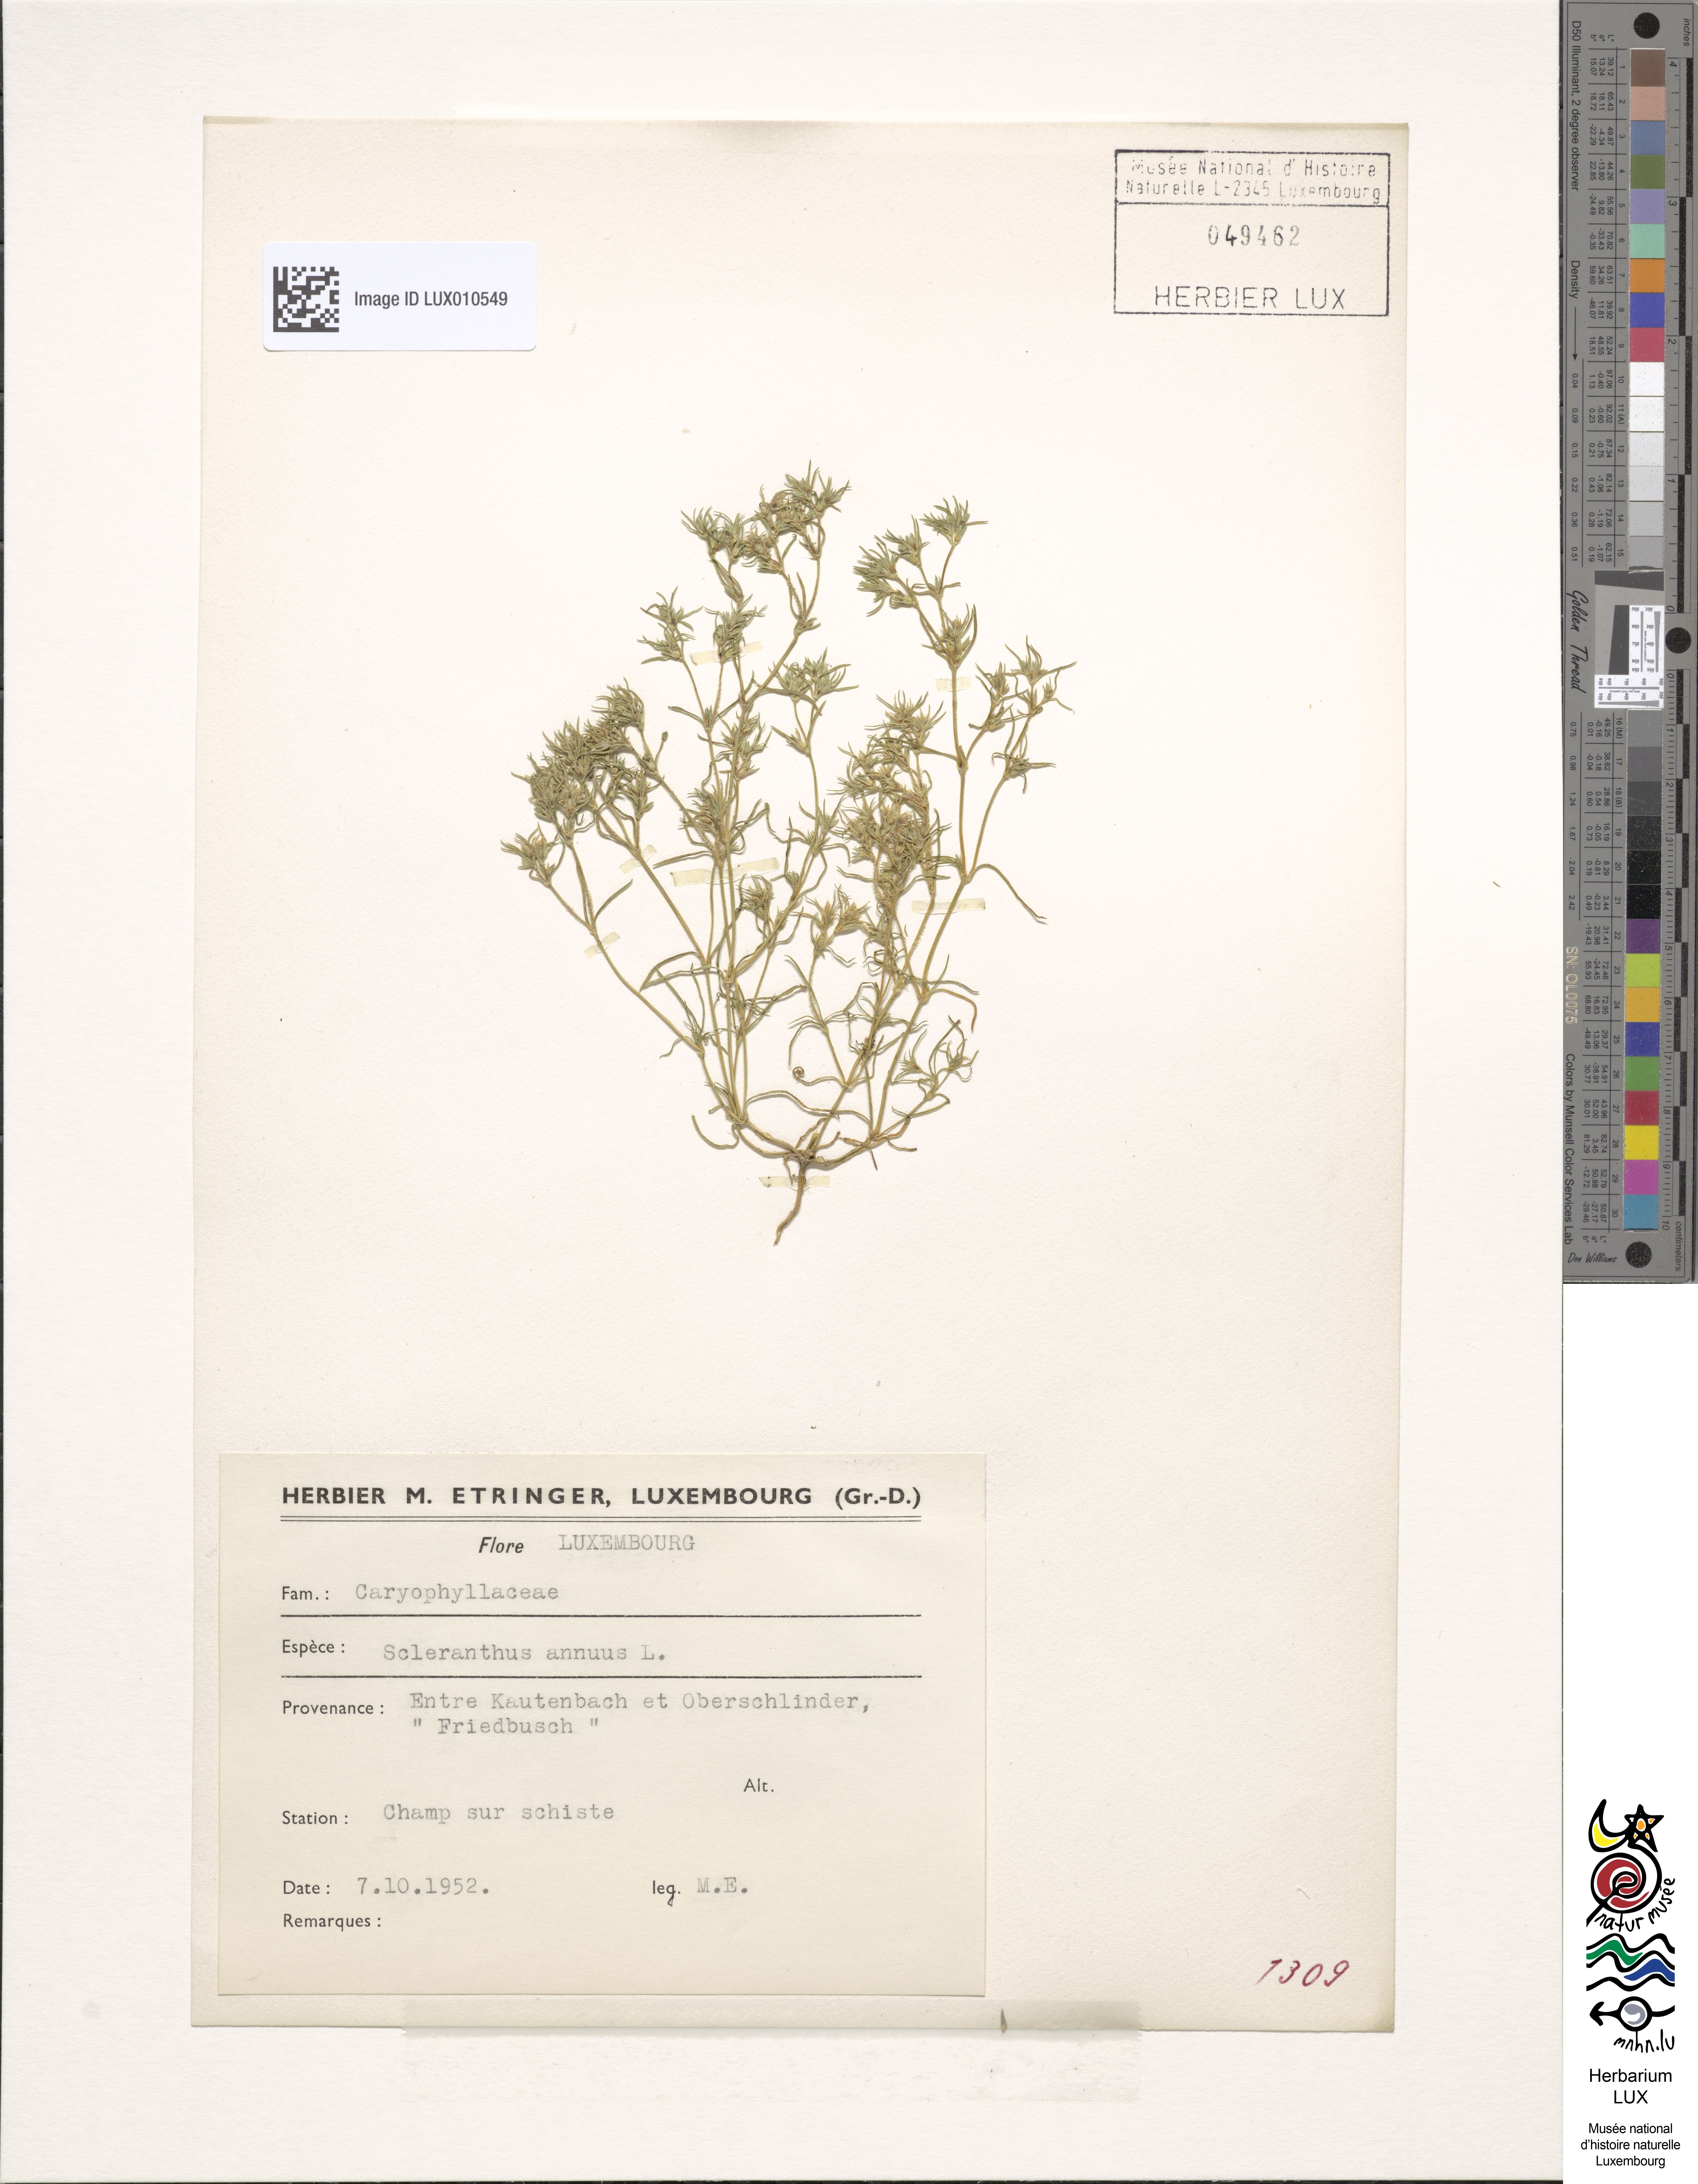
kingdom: Plantae
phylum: Tracheophyta
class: Magnoliopsida
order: Caryophyllales
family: Caryophyllaceae
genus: Scleranthus
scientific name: Scleranthus annuus
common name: Annual knawel
